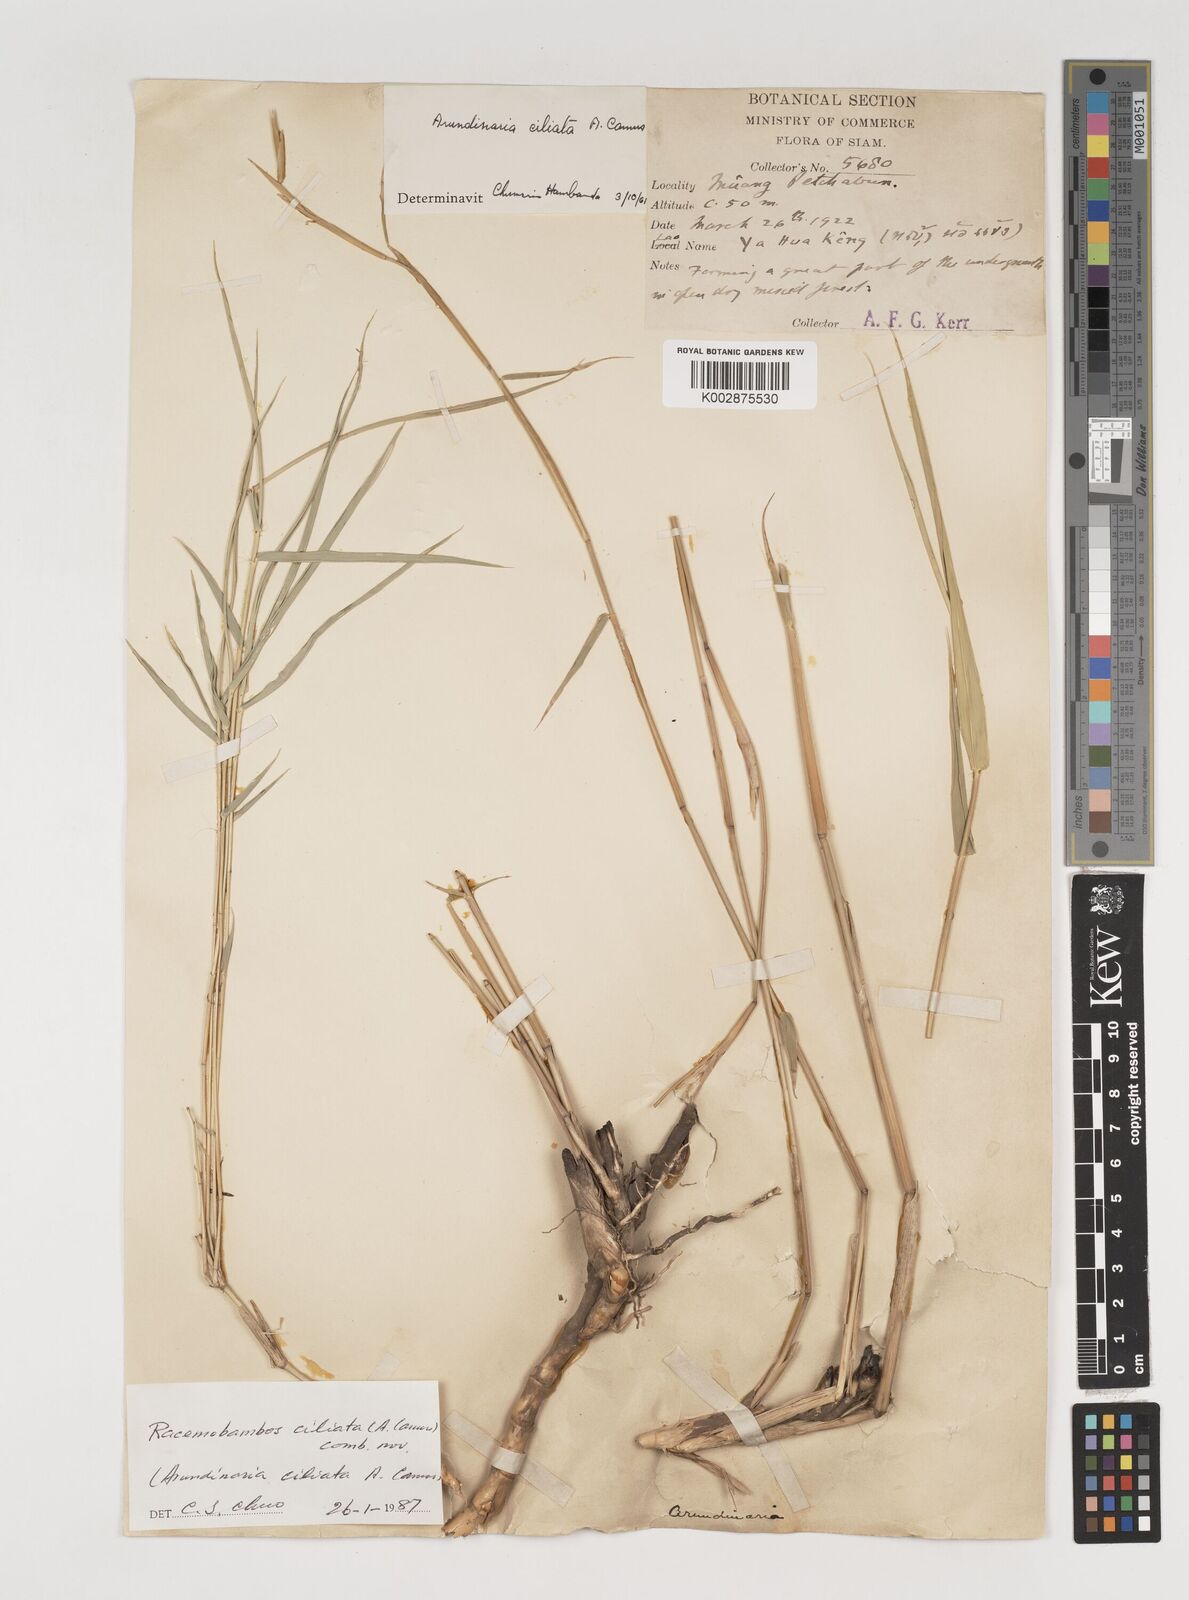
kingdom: Plantae
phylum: Tracheophyta
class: Liliopsida
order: Poales
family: Poaceae
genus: Vietnamosasa
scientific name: Vietnamosasa ciliata
